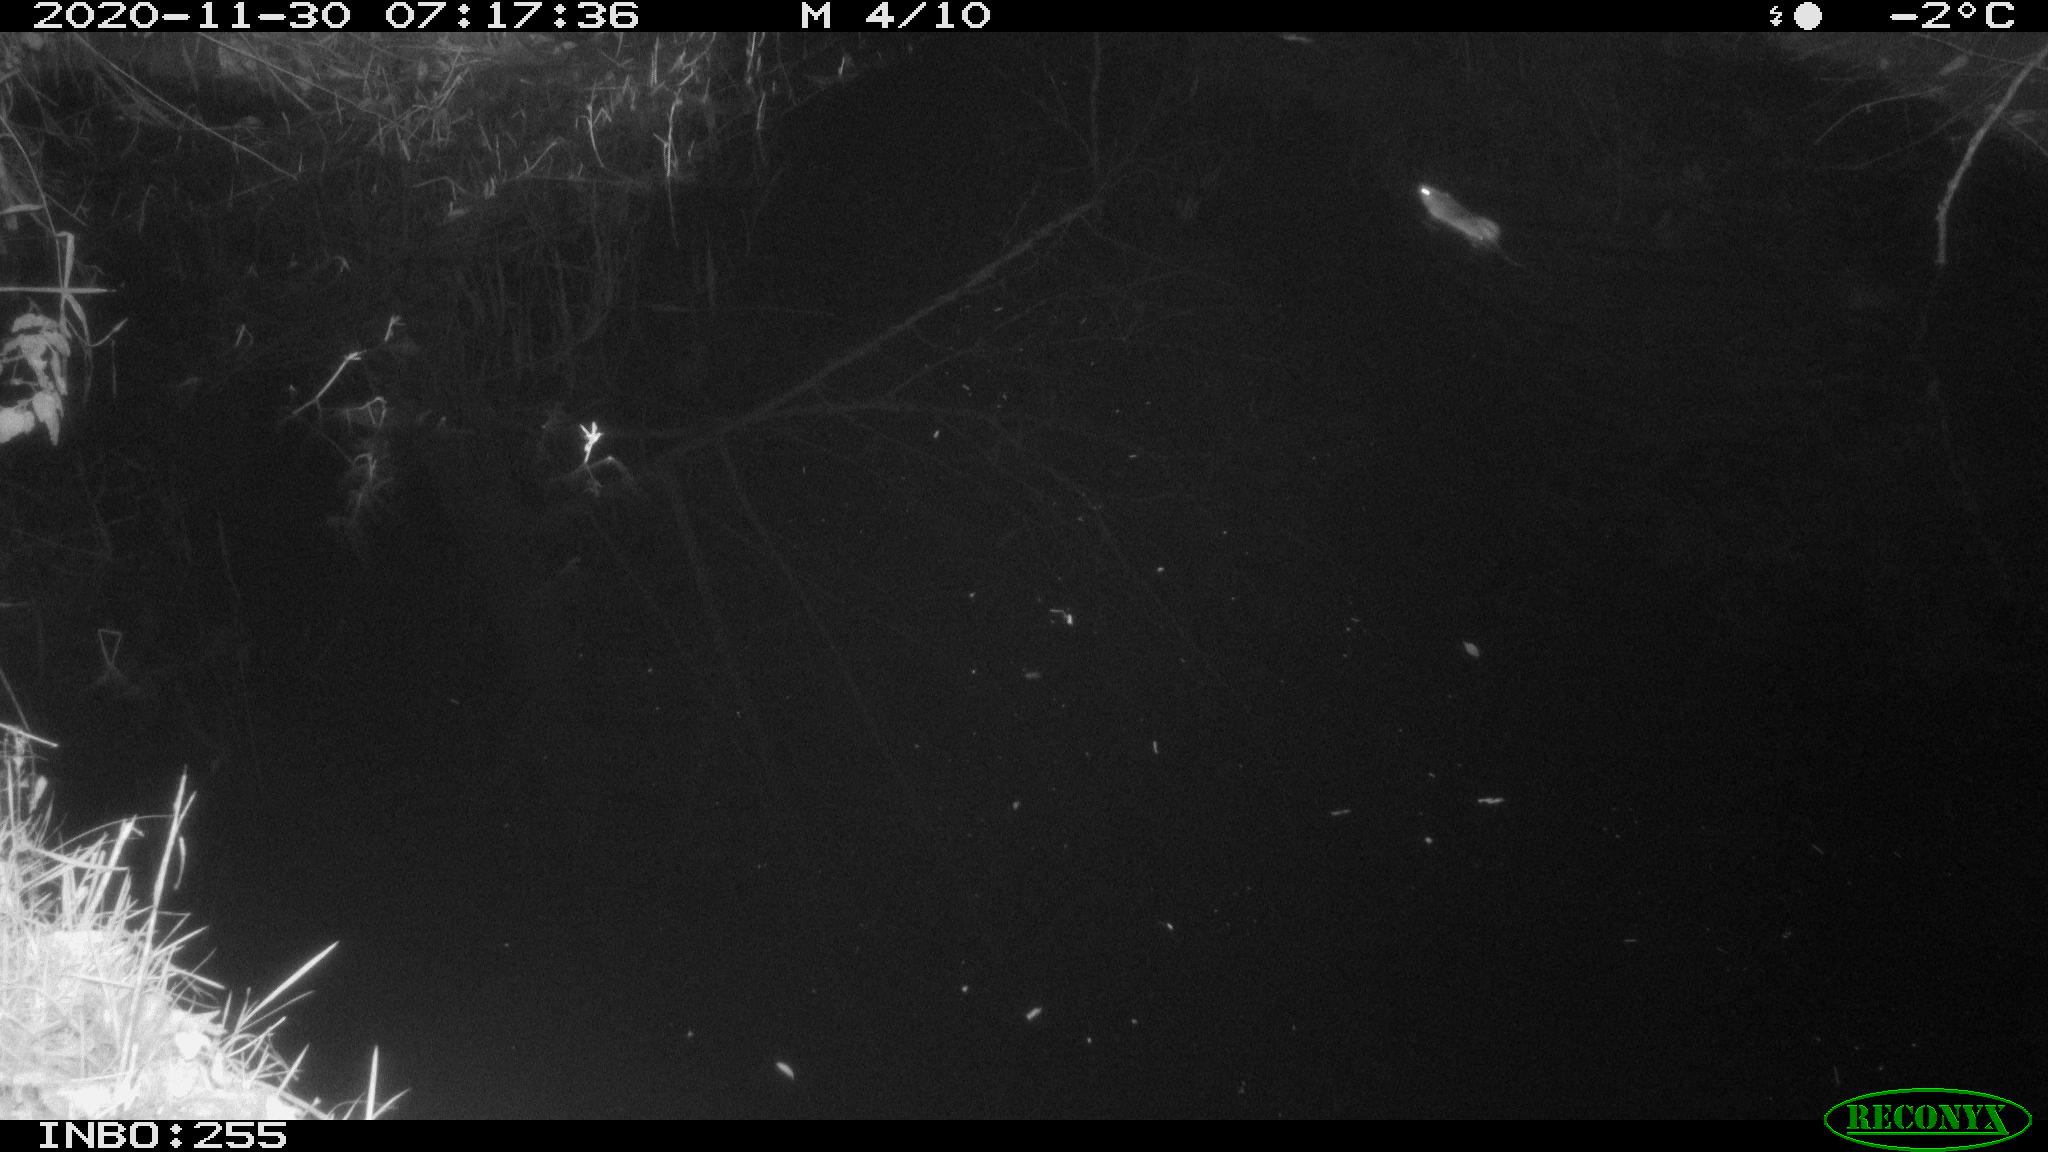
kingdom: Animalia
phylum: Chordata
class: Mammalia
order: Rodentia
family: Muridae
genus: Rattus
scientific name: Rattus norvegicus
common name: Brown rat
